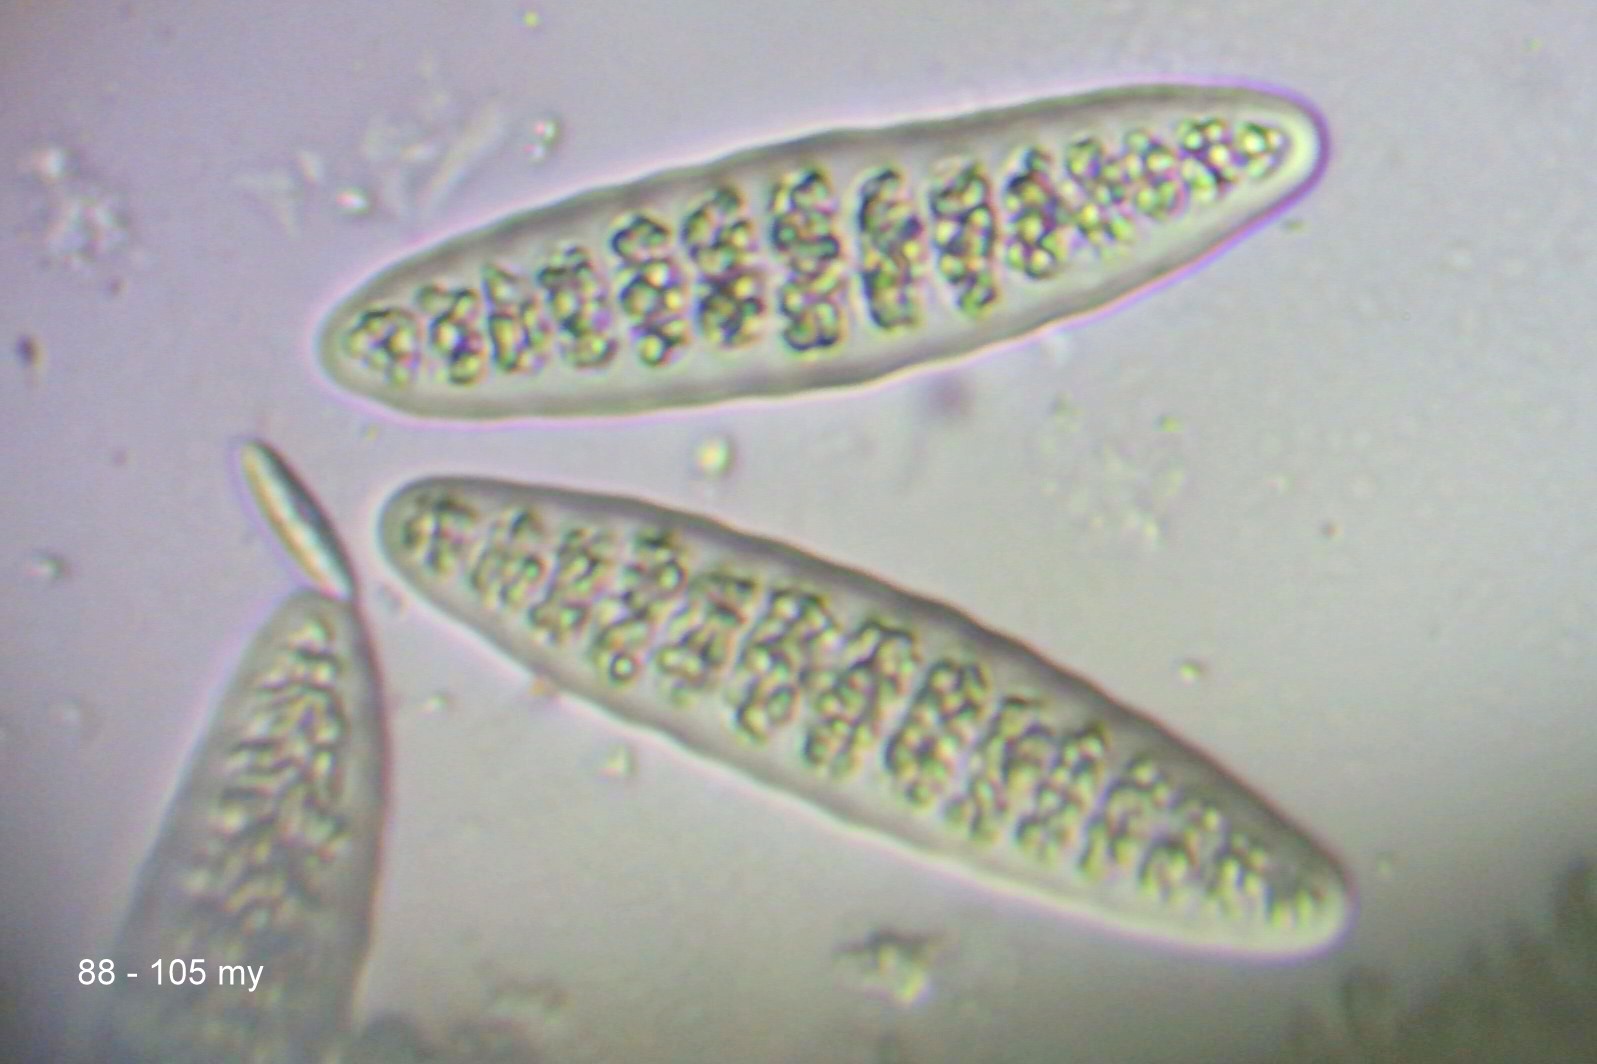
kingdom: Fungi
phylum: Ascomycota
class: Lecanoromycetes
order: Ostropales
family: Graphidaceae
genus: Thelotrema
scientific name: Thelotrema lepadinum
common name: almindelig slørkantlav
